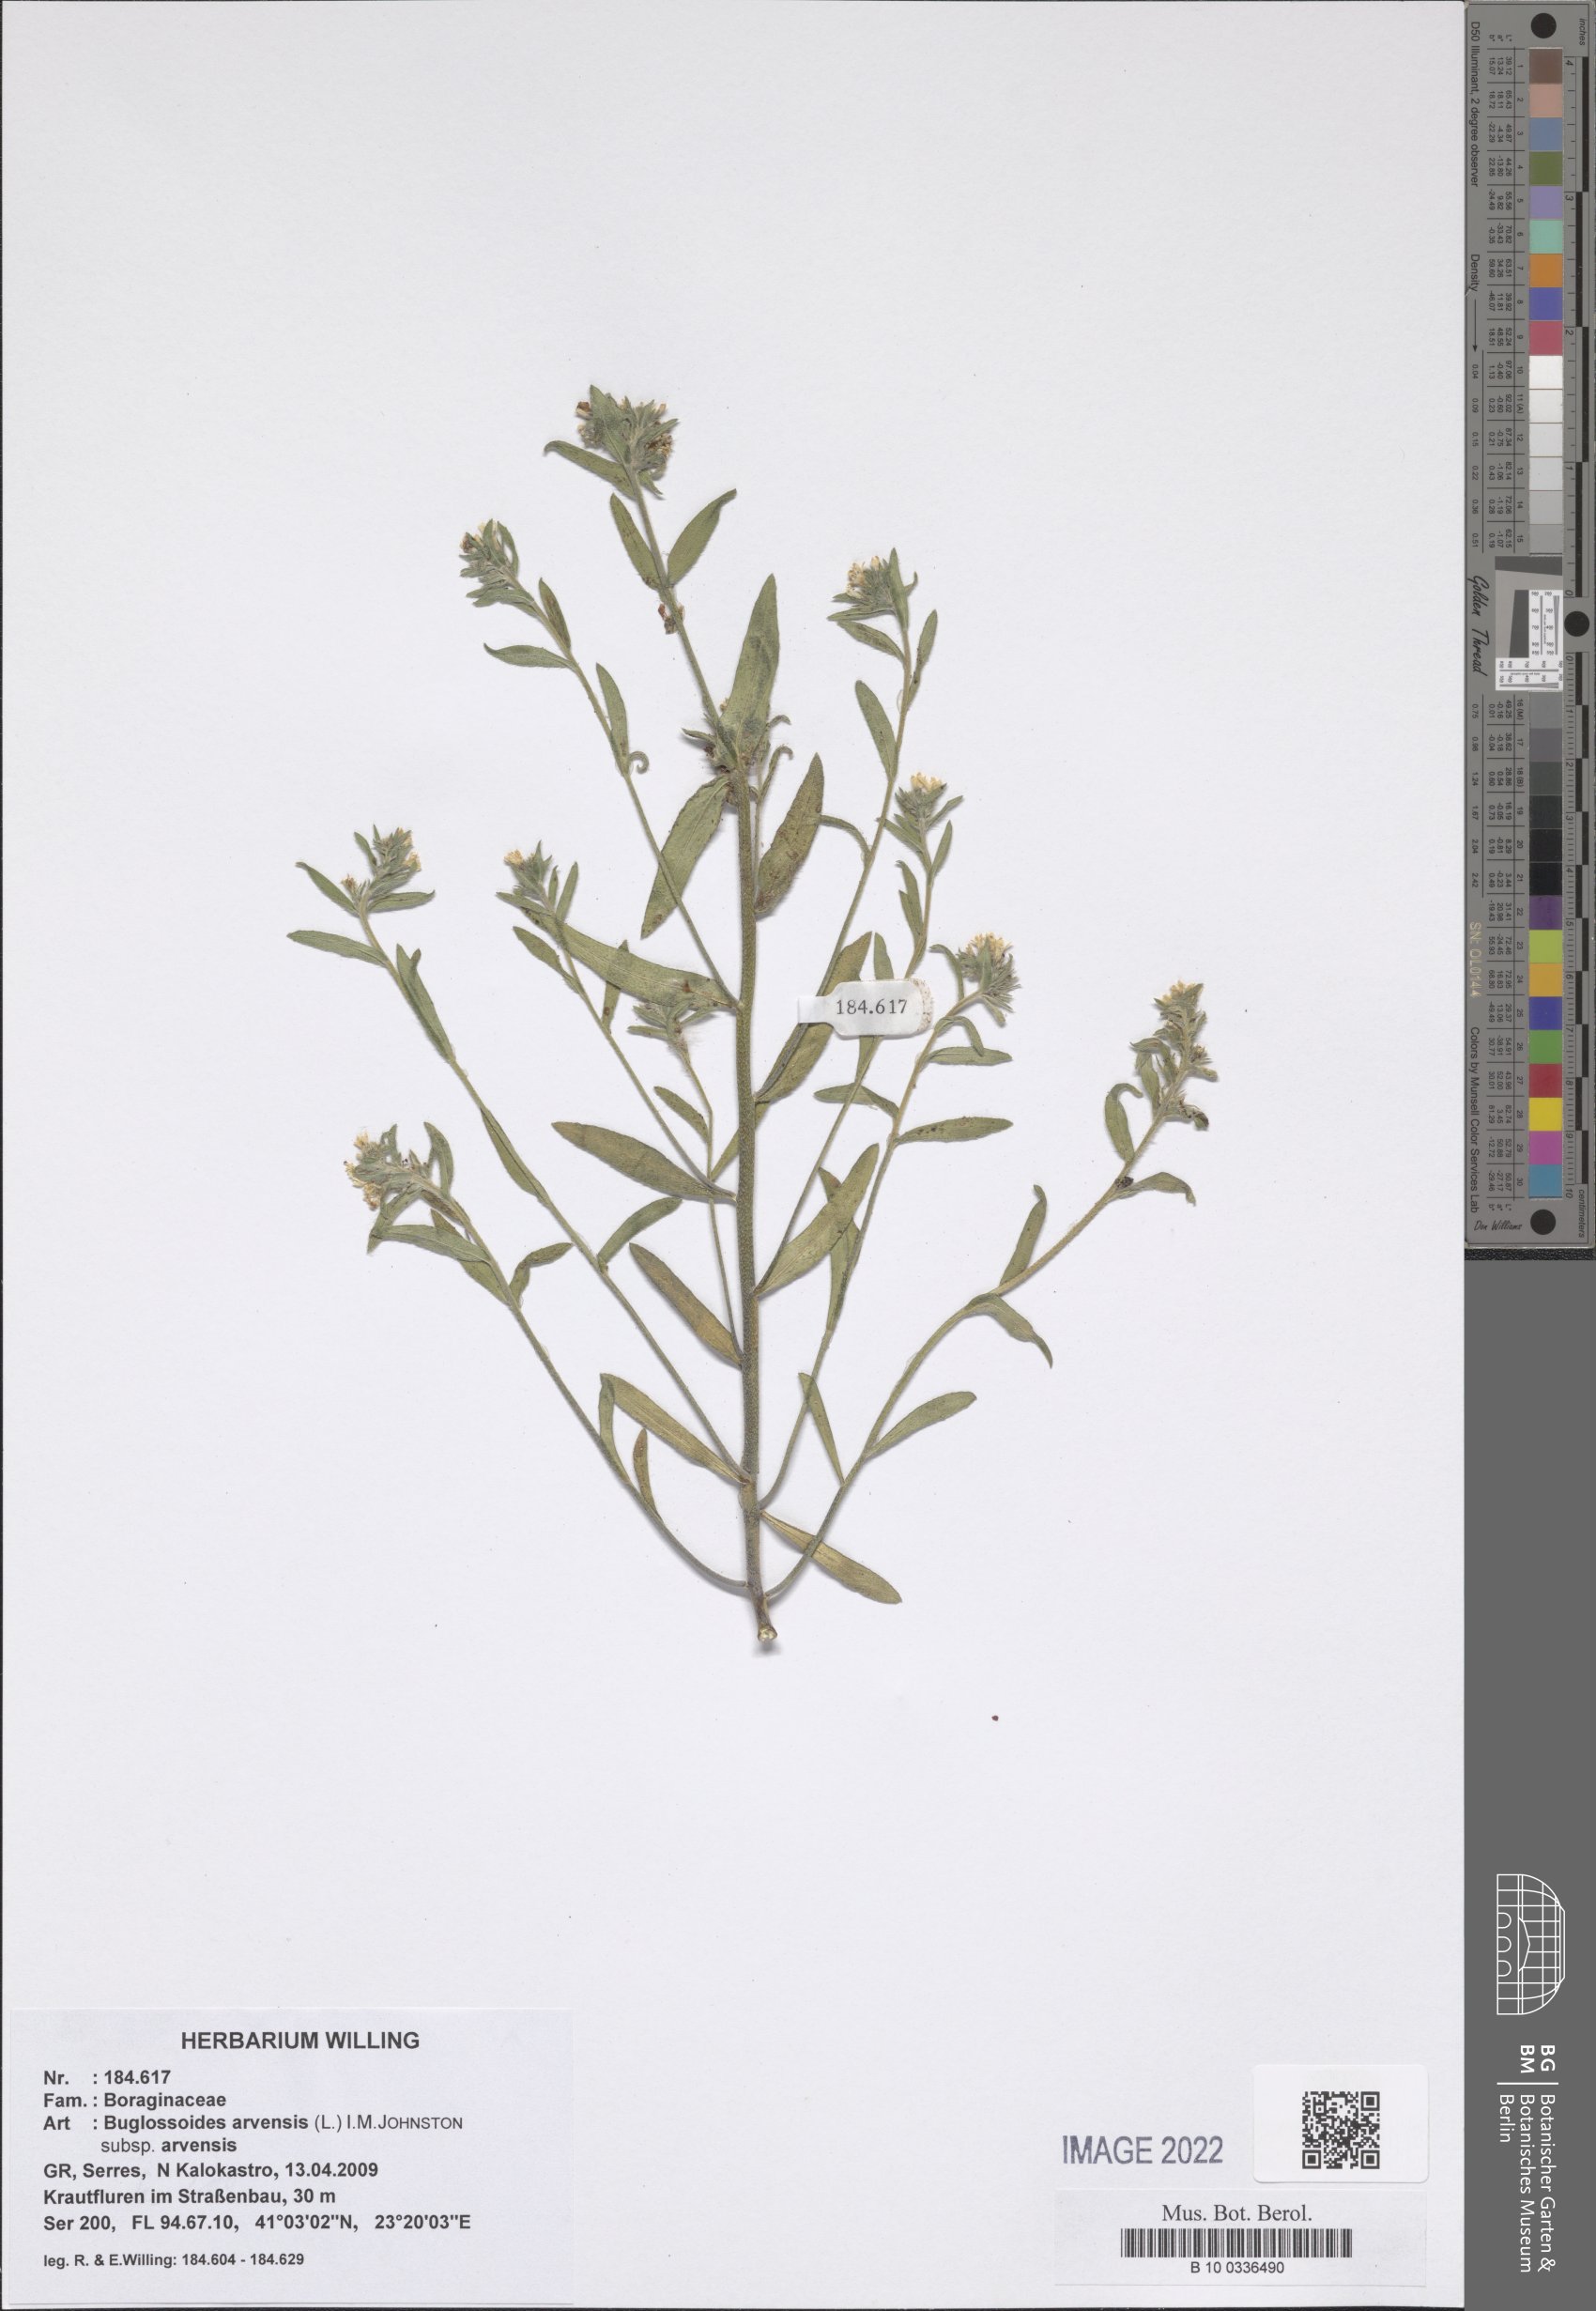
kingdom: Plantae
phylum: Tracheophyta
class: Magnoliopsida
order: Boraginales
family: Boraginaceae
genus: Buglossoides
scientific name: Buglossoides arvensis
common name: Corn gromwell
